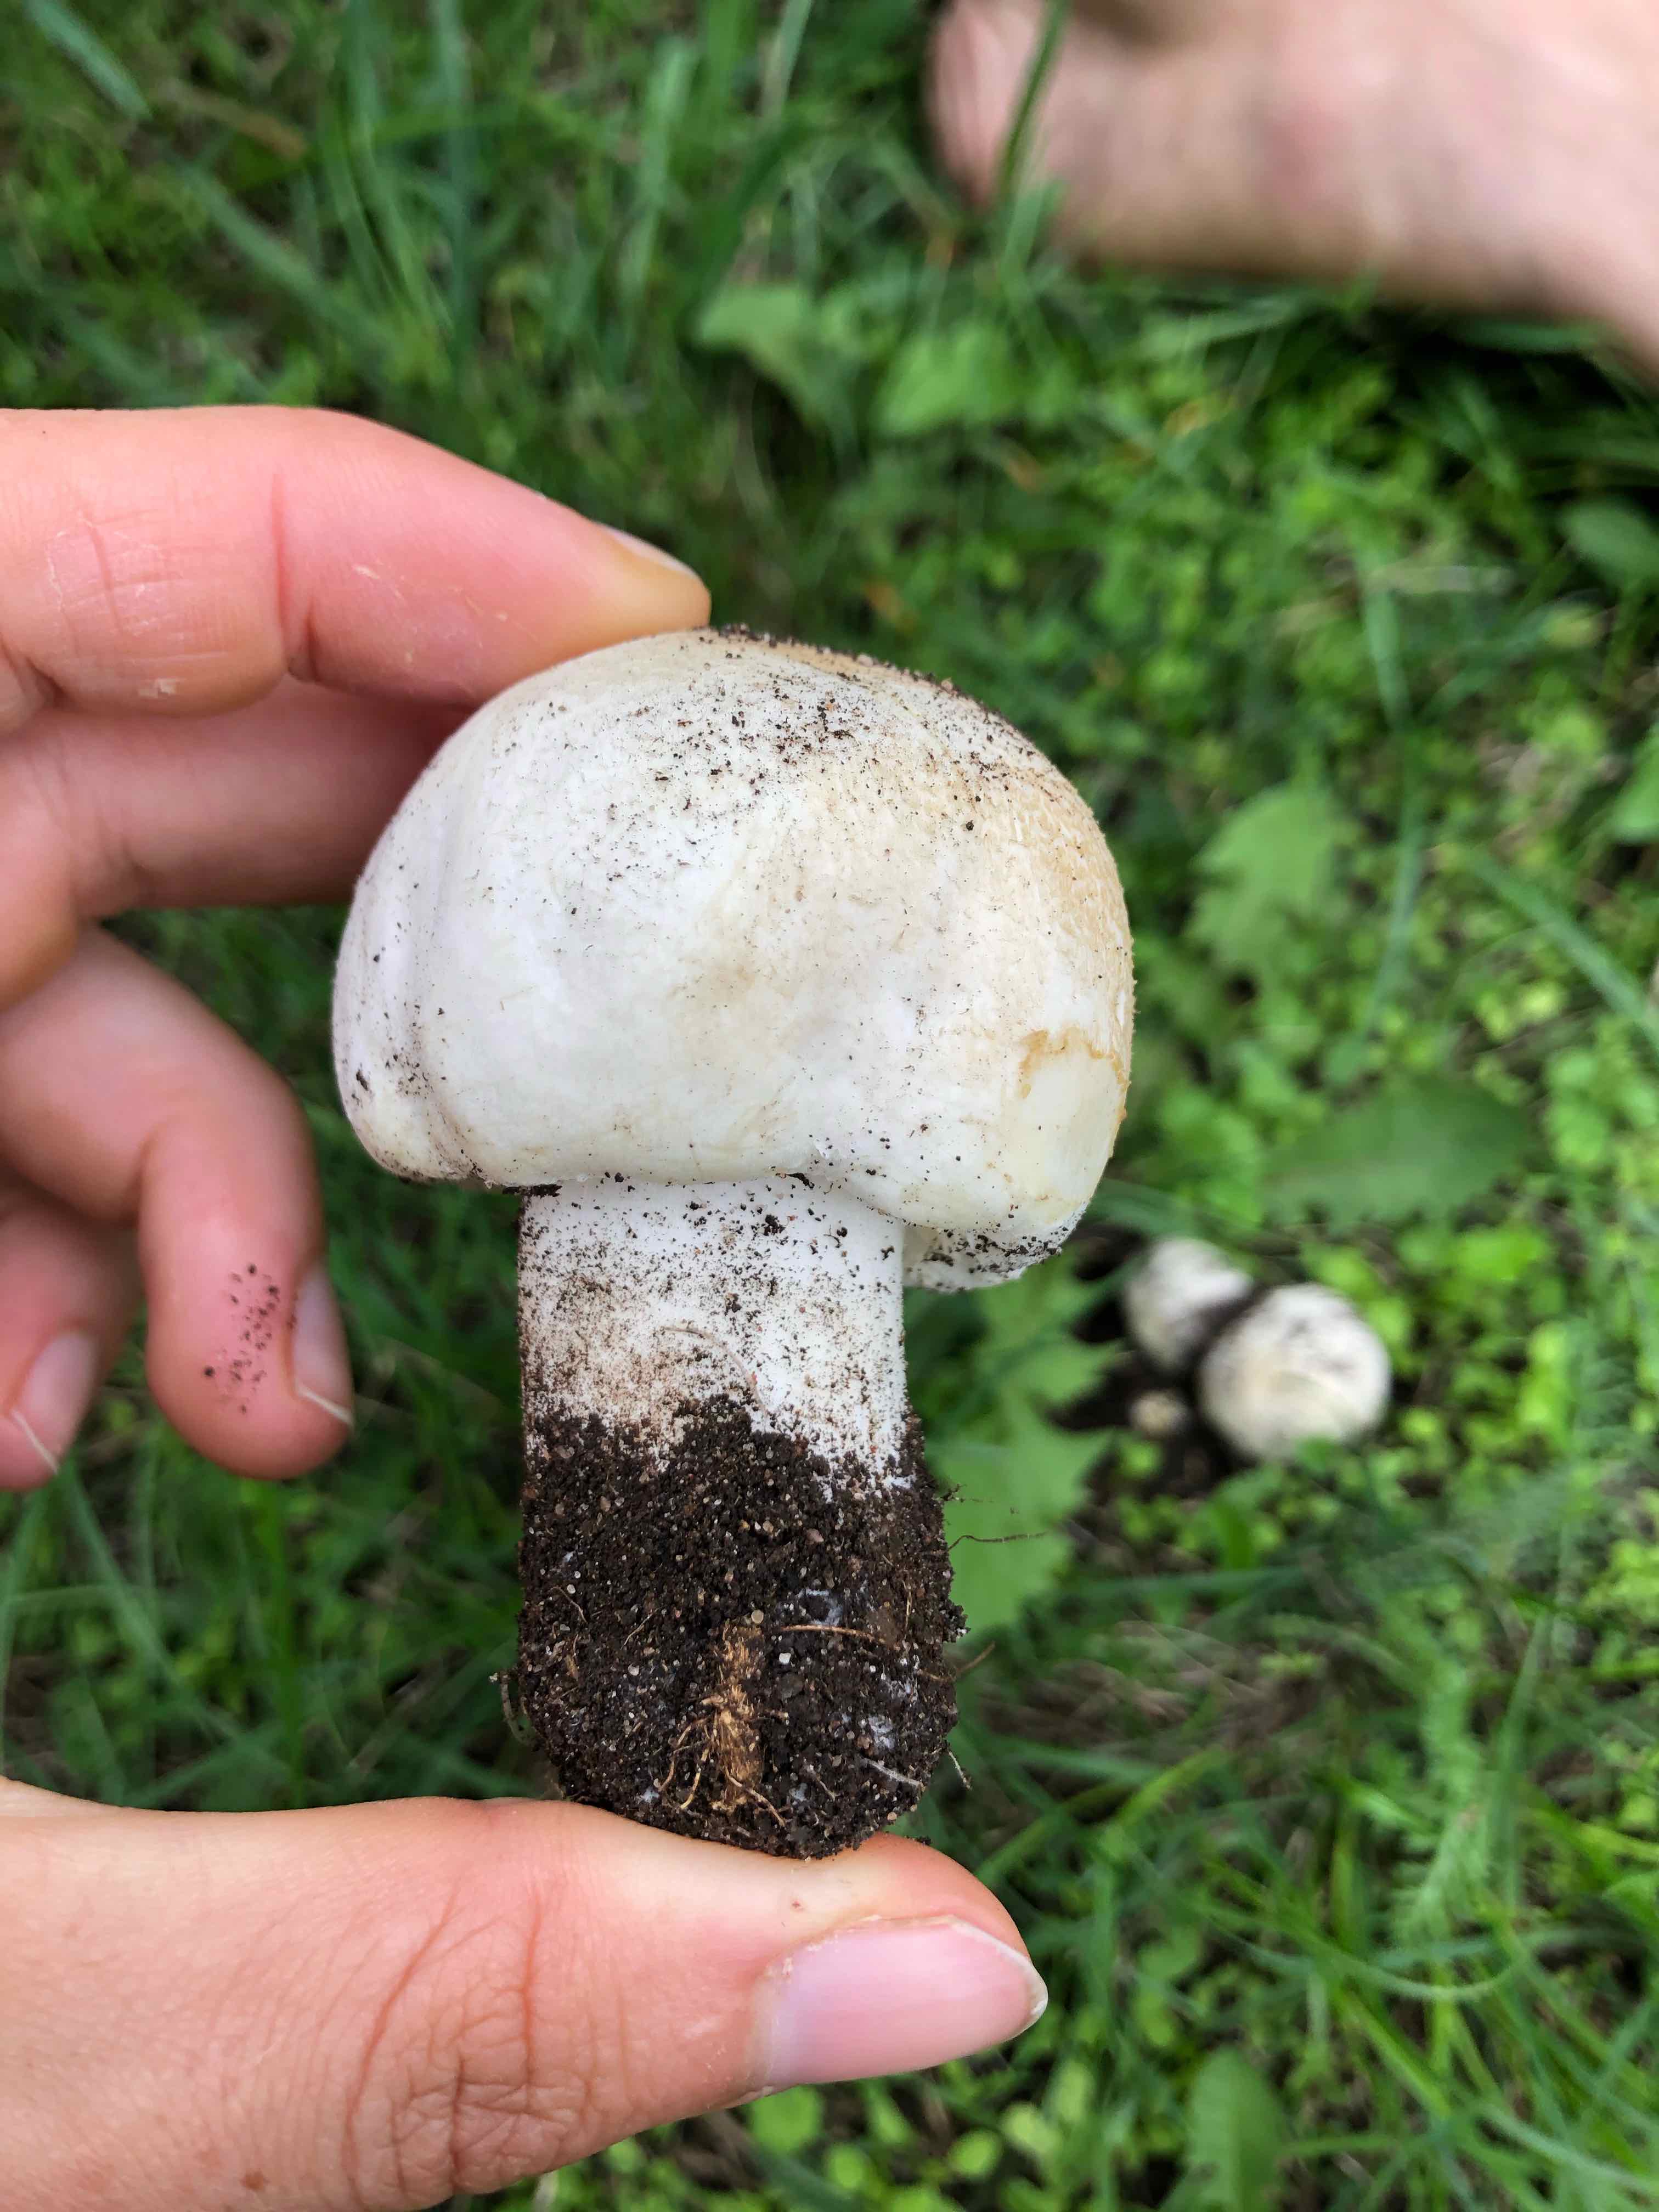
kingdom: Fungi
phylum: Basidiomycota
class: Agaricomycetes
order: Agaricales
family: Agaricaceae
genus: Agaricus
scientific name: Agaricus arvensis
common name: ager-champignon
